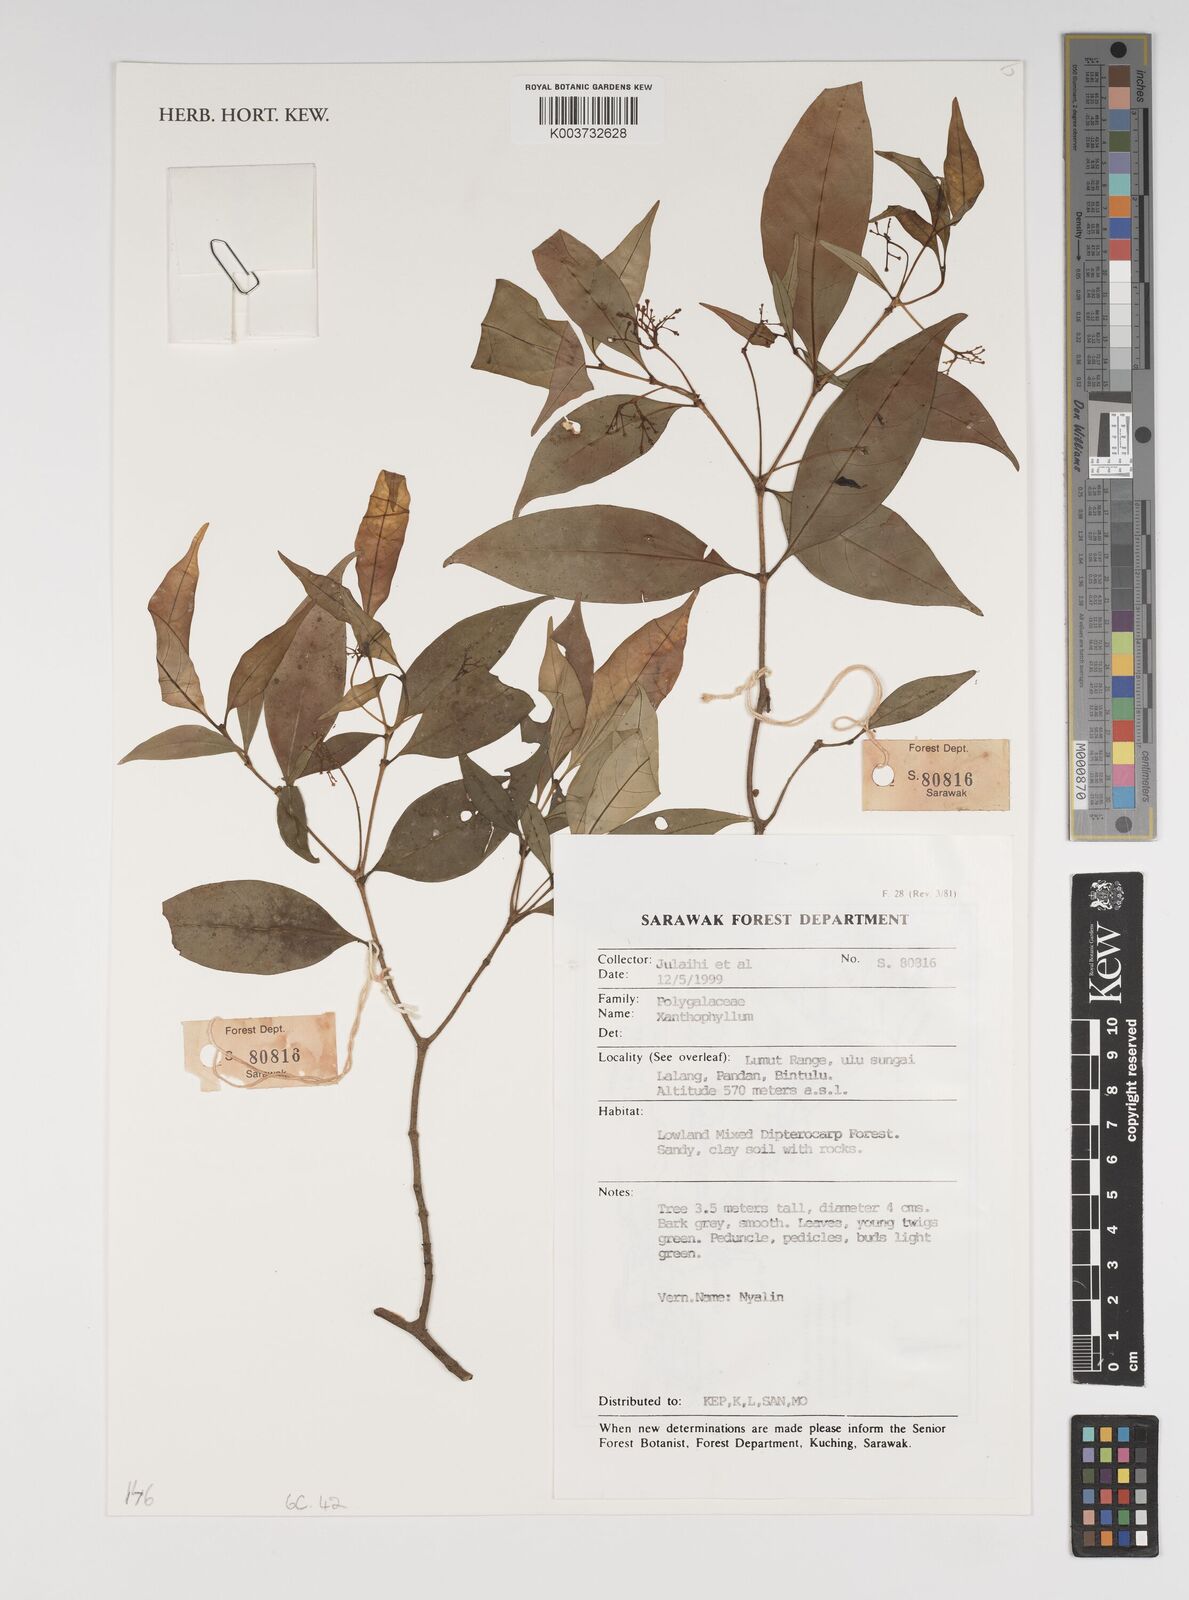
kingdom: Plantae
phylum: Tracheophyta
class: Magnoliopsida
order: Fabales
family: Polygalaceae
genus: Xanthophyllum
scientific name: Xanthophyllum
